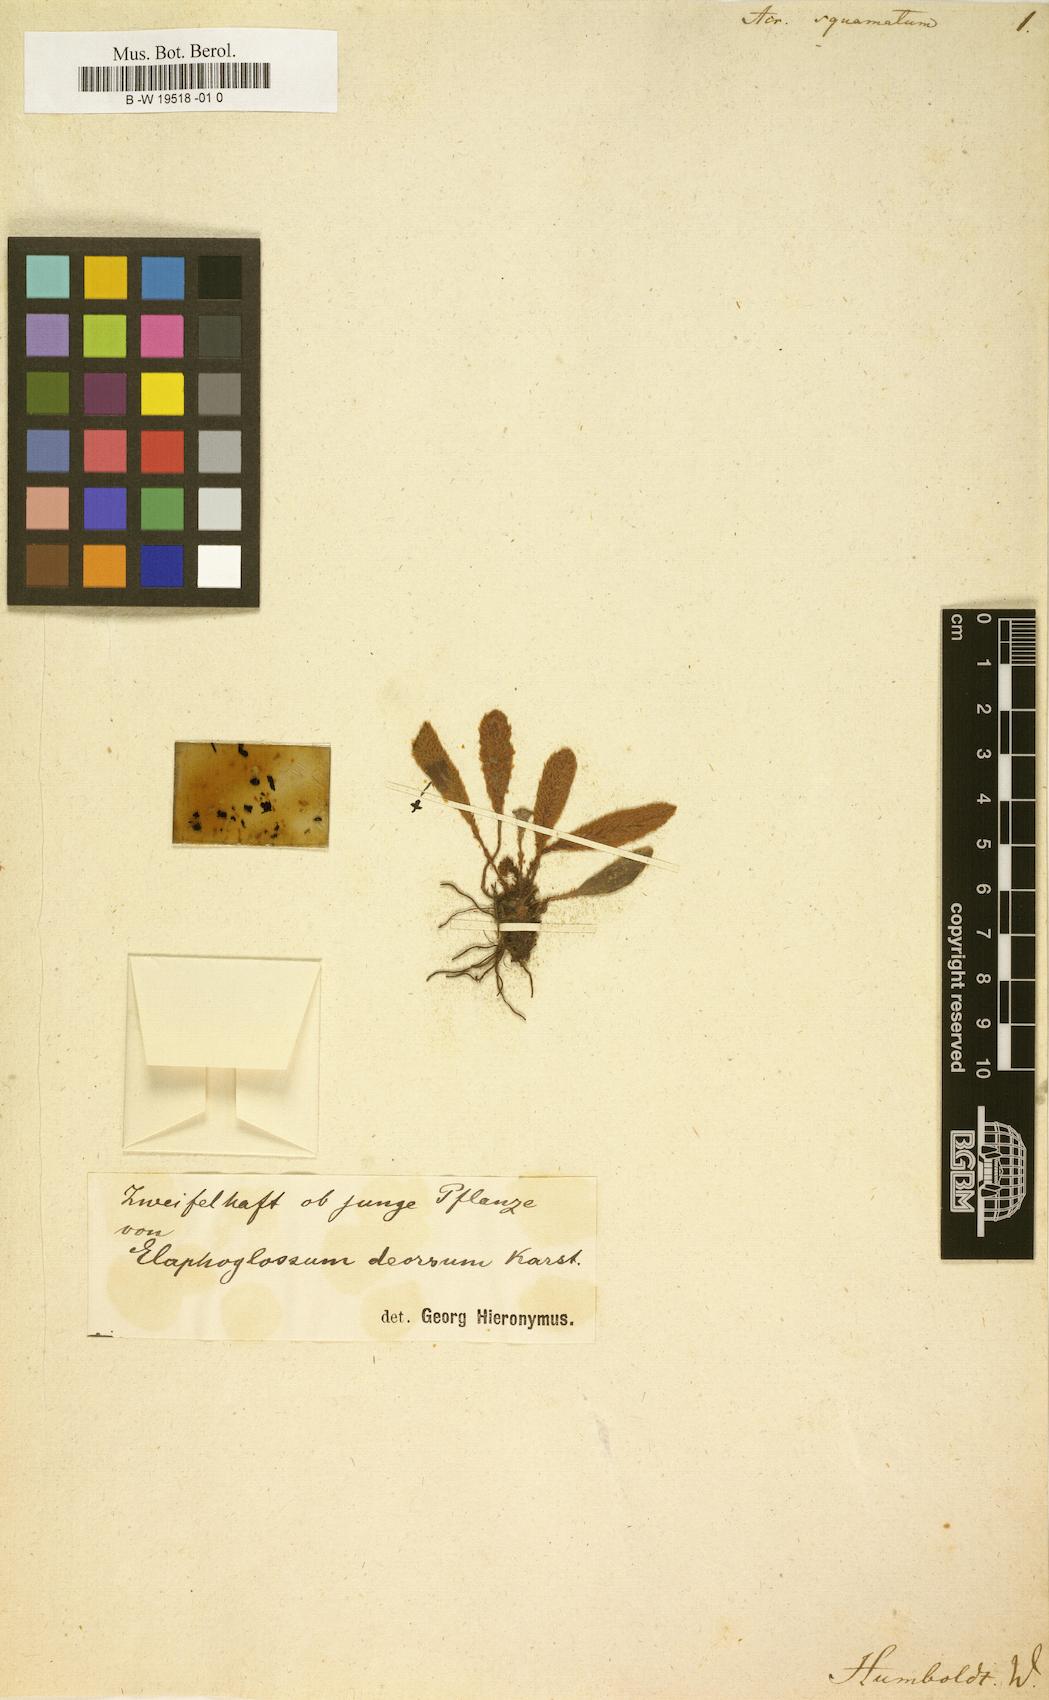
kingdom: Plantae
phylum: Tracheophyta
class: Polypodiopsida
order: Polypodiales
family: Dryopteridaceae
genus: Elaphoglossum
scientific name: Elaphoglossum lindenii
